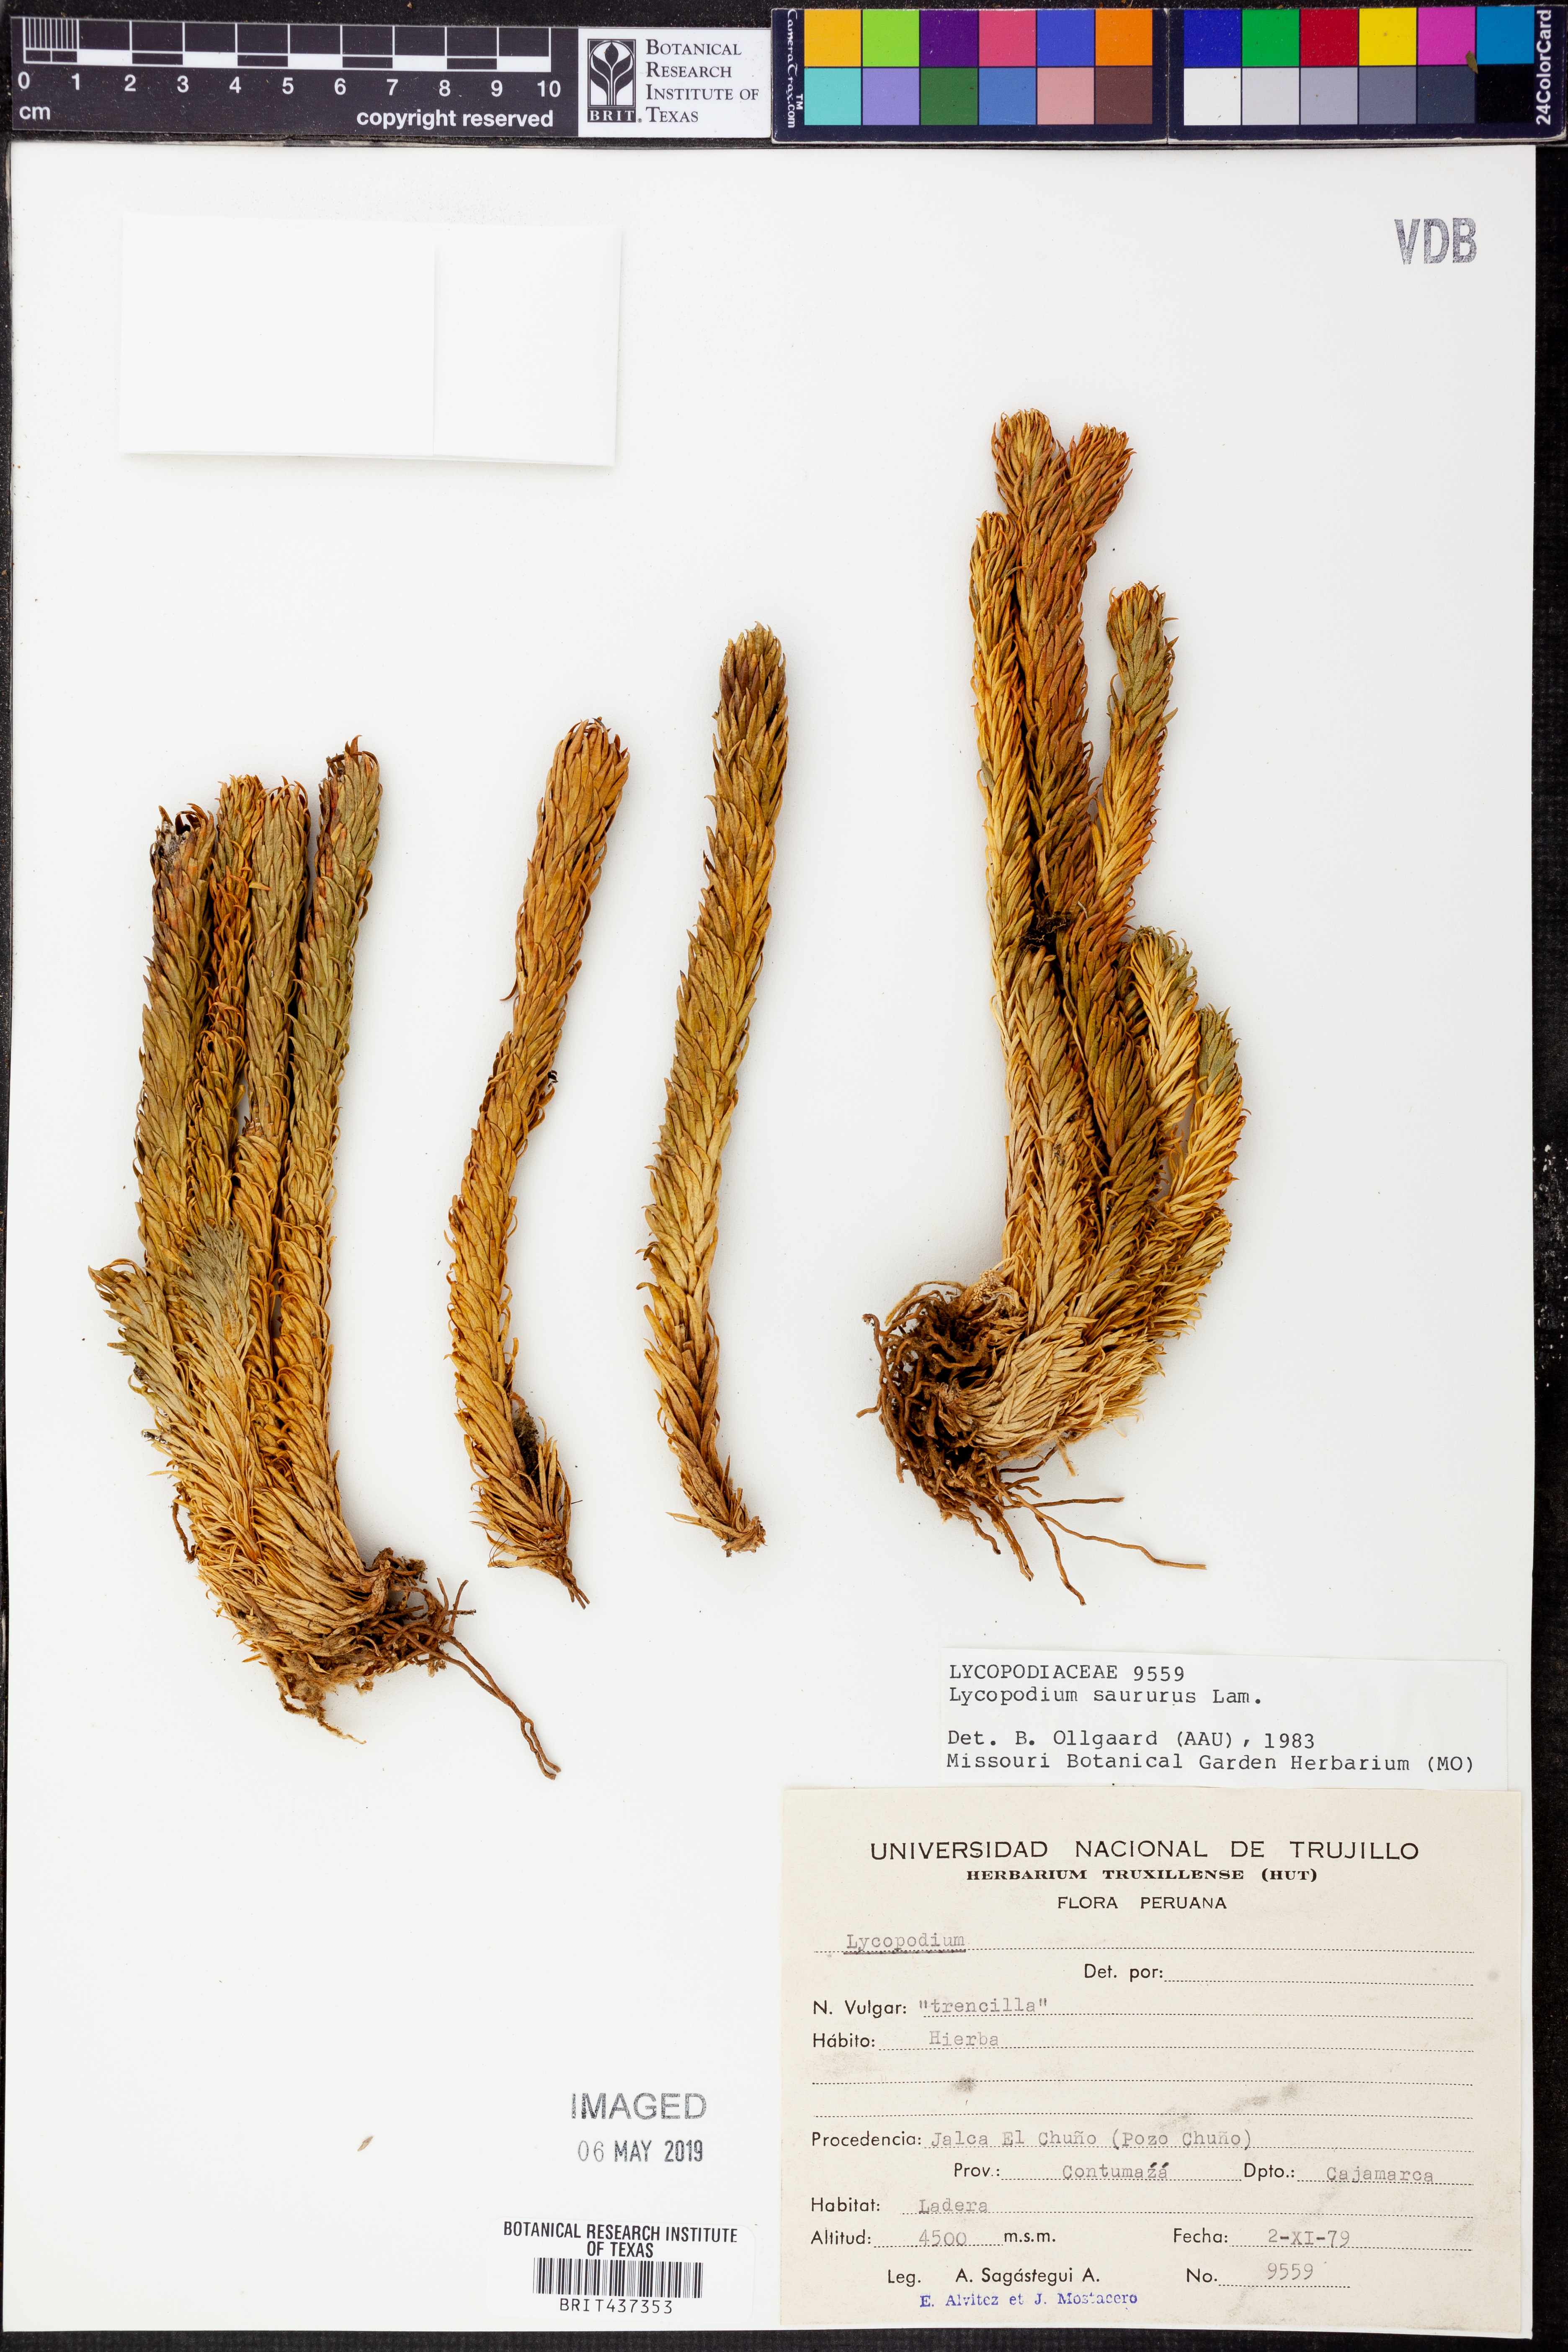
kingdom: Plantae
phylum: Tracheophyta
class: Lycopodiopsida
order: Lycopodiales
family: Lycopodiaceae
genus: Phlegmariurus
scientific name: Phlegmariurus saururus
